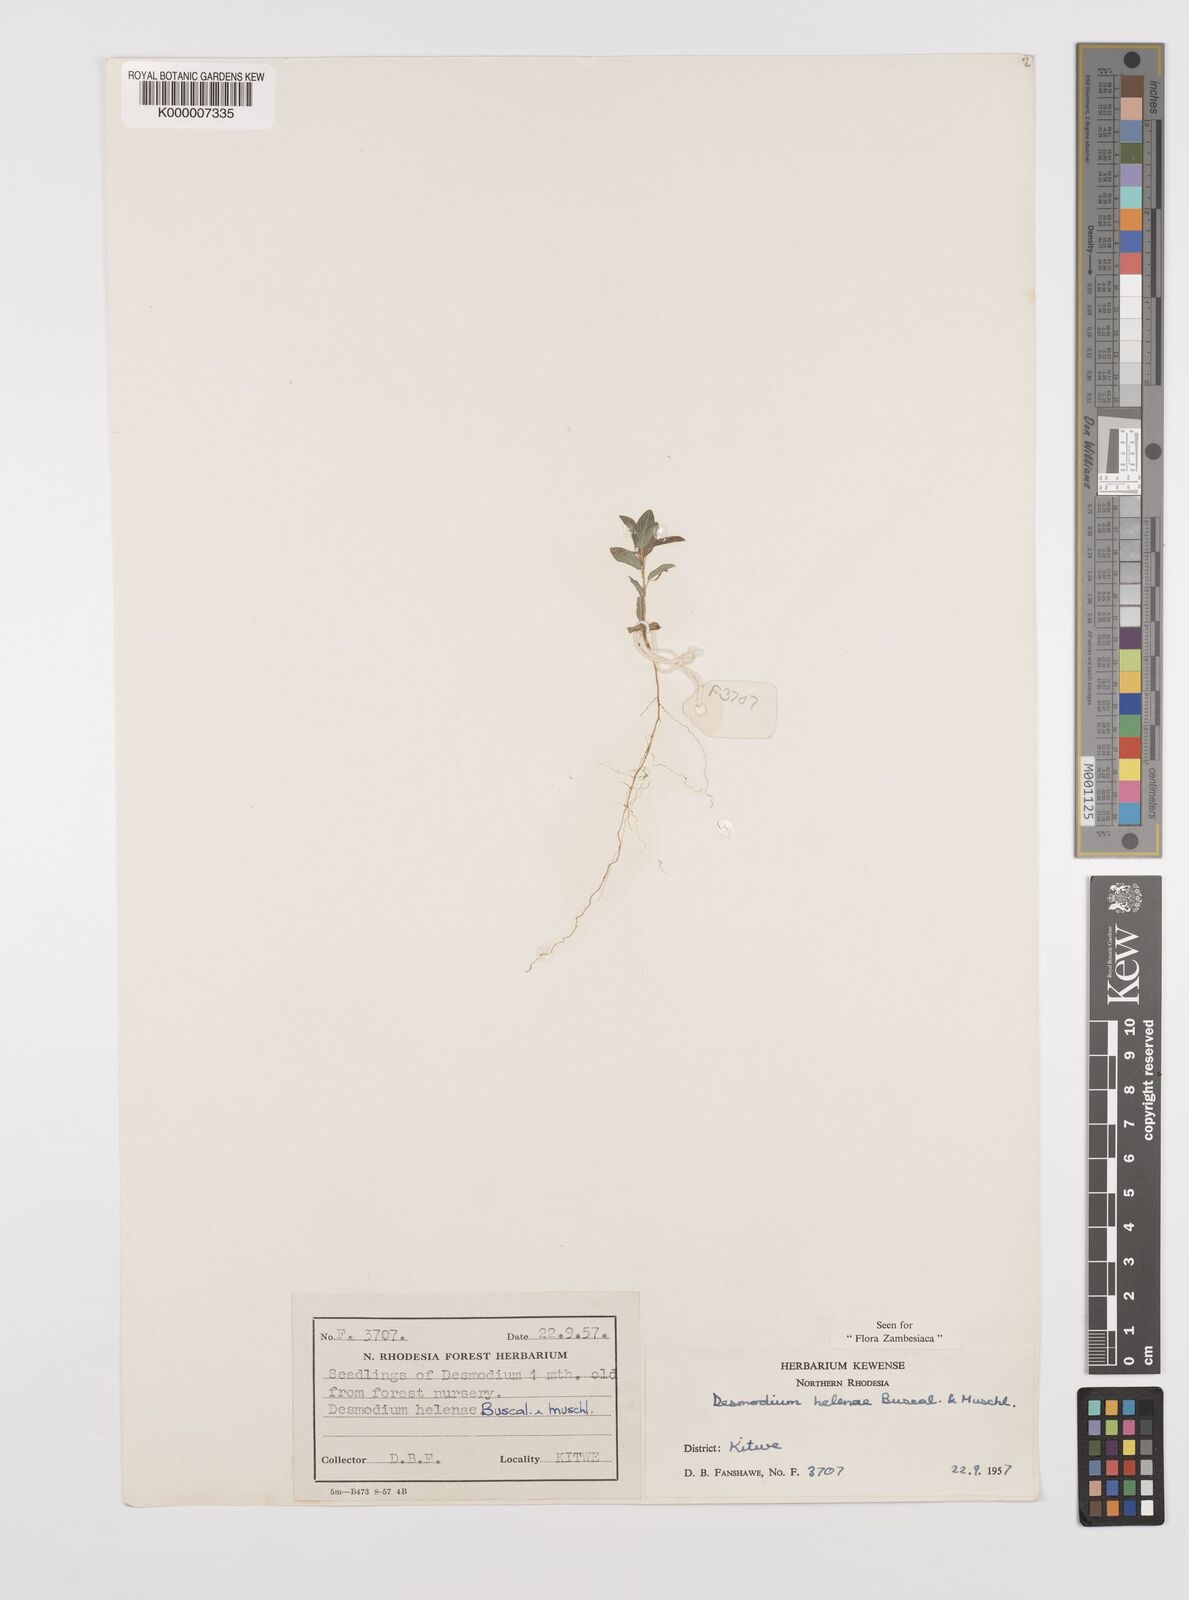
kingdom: Plantae
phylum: Tracheophyta
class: Magnoliopsida
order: Fabales
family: Fabaceae
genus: Grona
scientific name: Grona helenae
